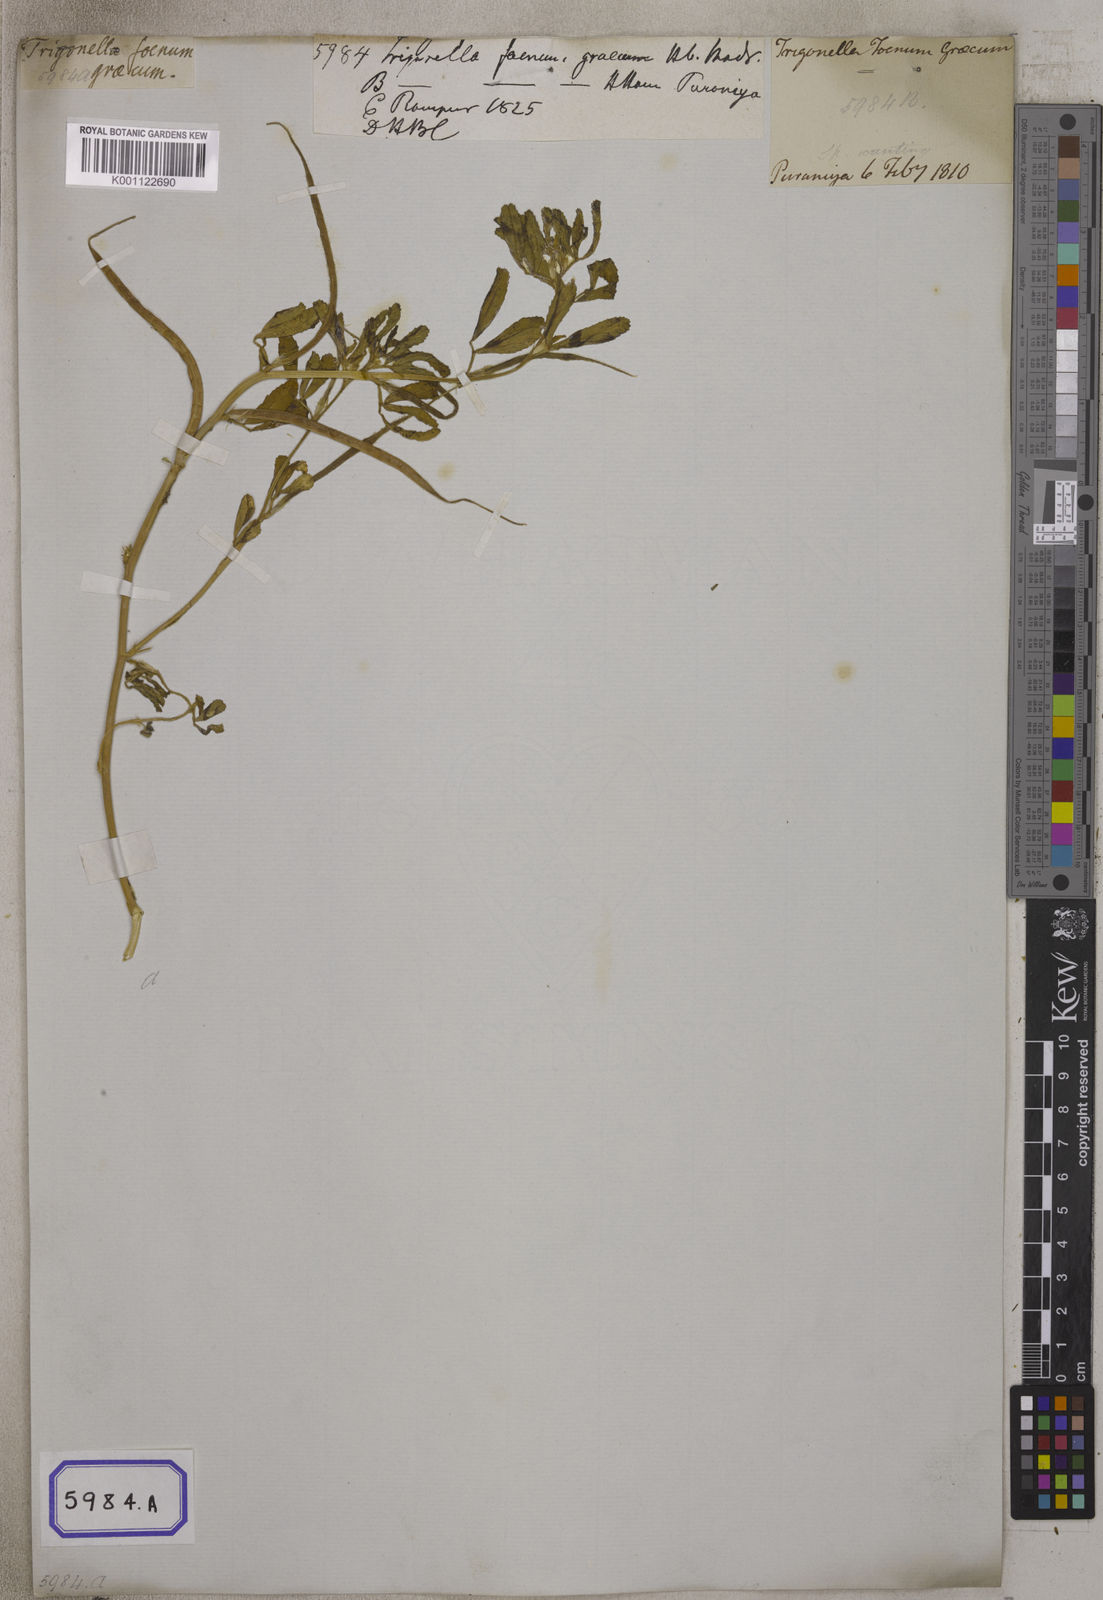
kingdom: Plantae
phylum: Tracheophyta
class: Magnoliopsida
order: Fabales
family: Fabaceae
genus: Trigonella
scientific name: Trigonella foenum-graecum
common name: Fenugreek
